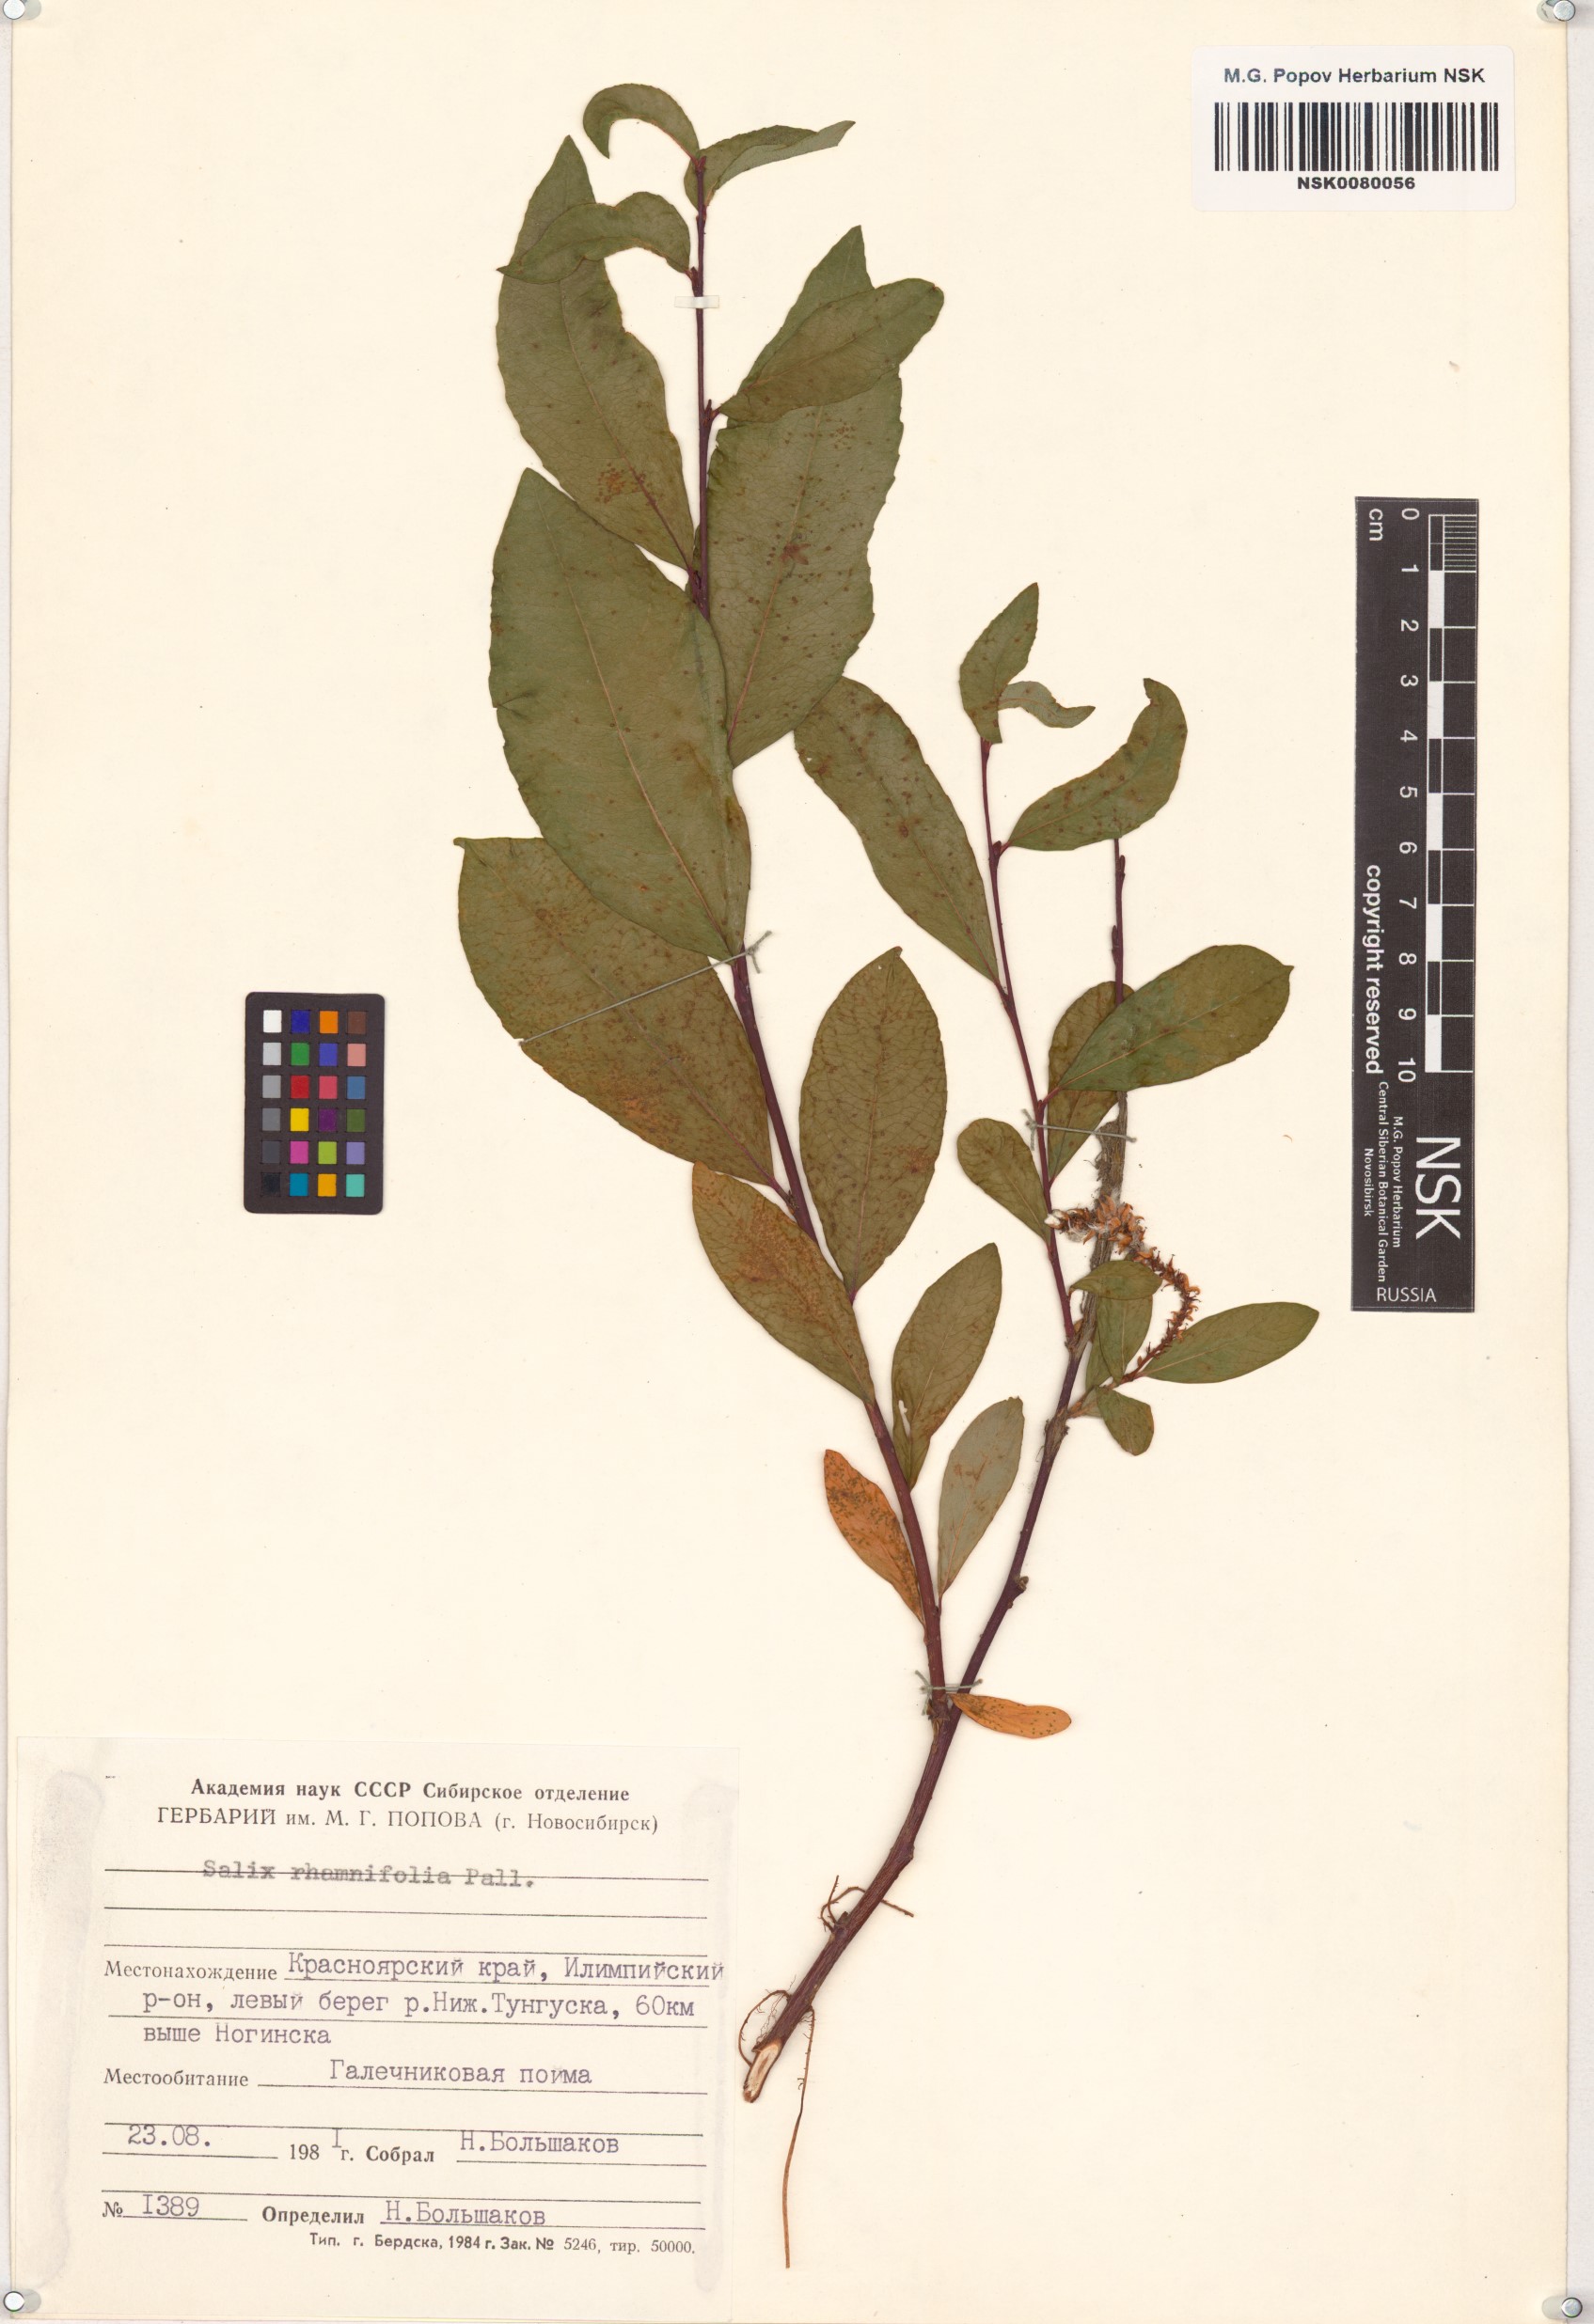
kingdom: Plantae
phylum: Tracheophyta
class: Magnoliopsida
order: Malpighiales
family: Salicaceae
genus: Salix
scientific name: Salix rhamnifolia
